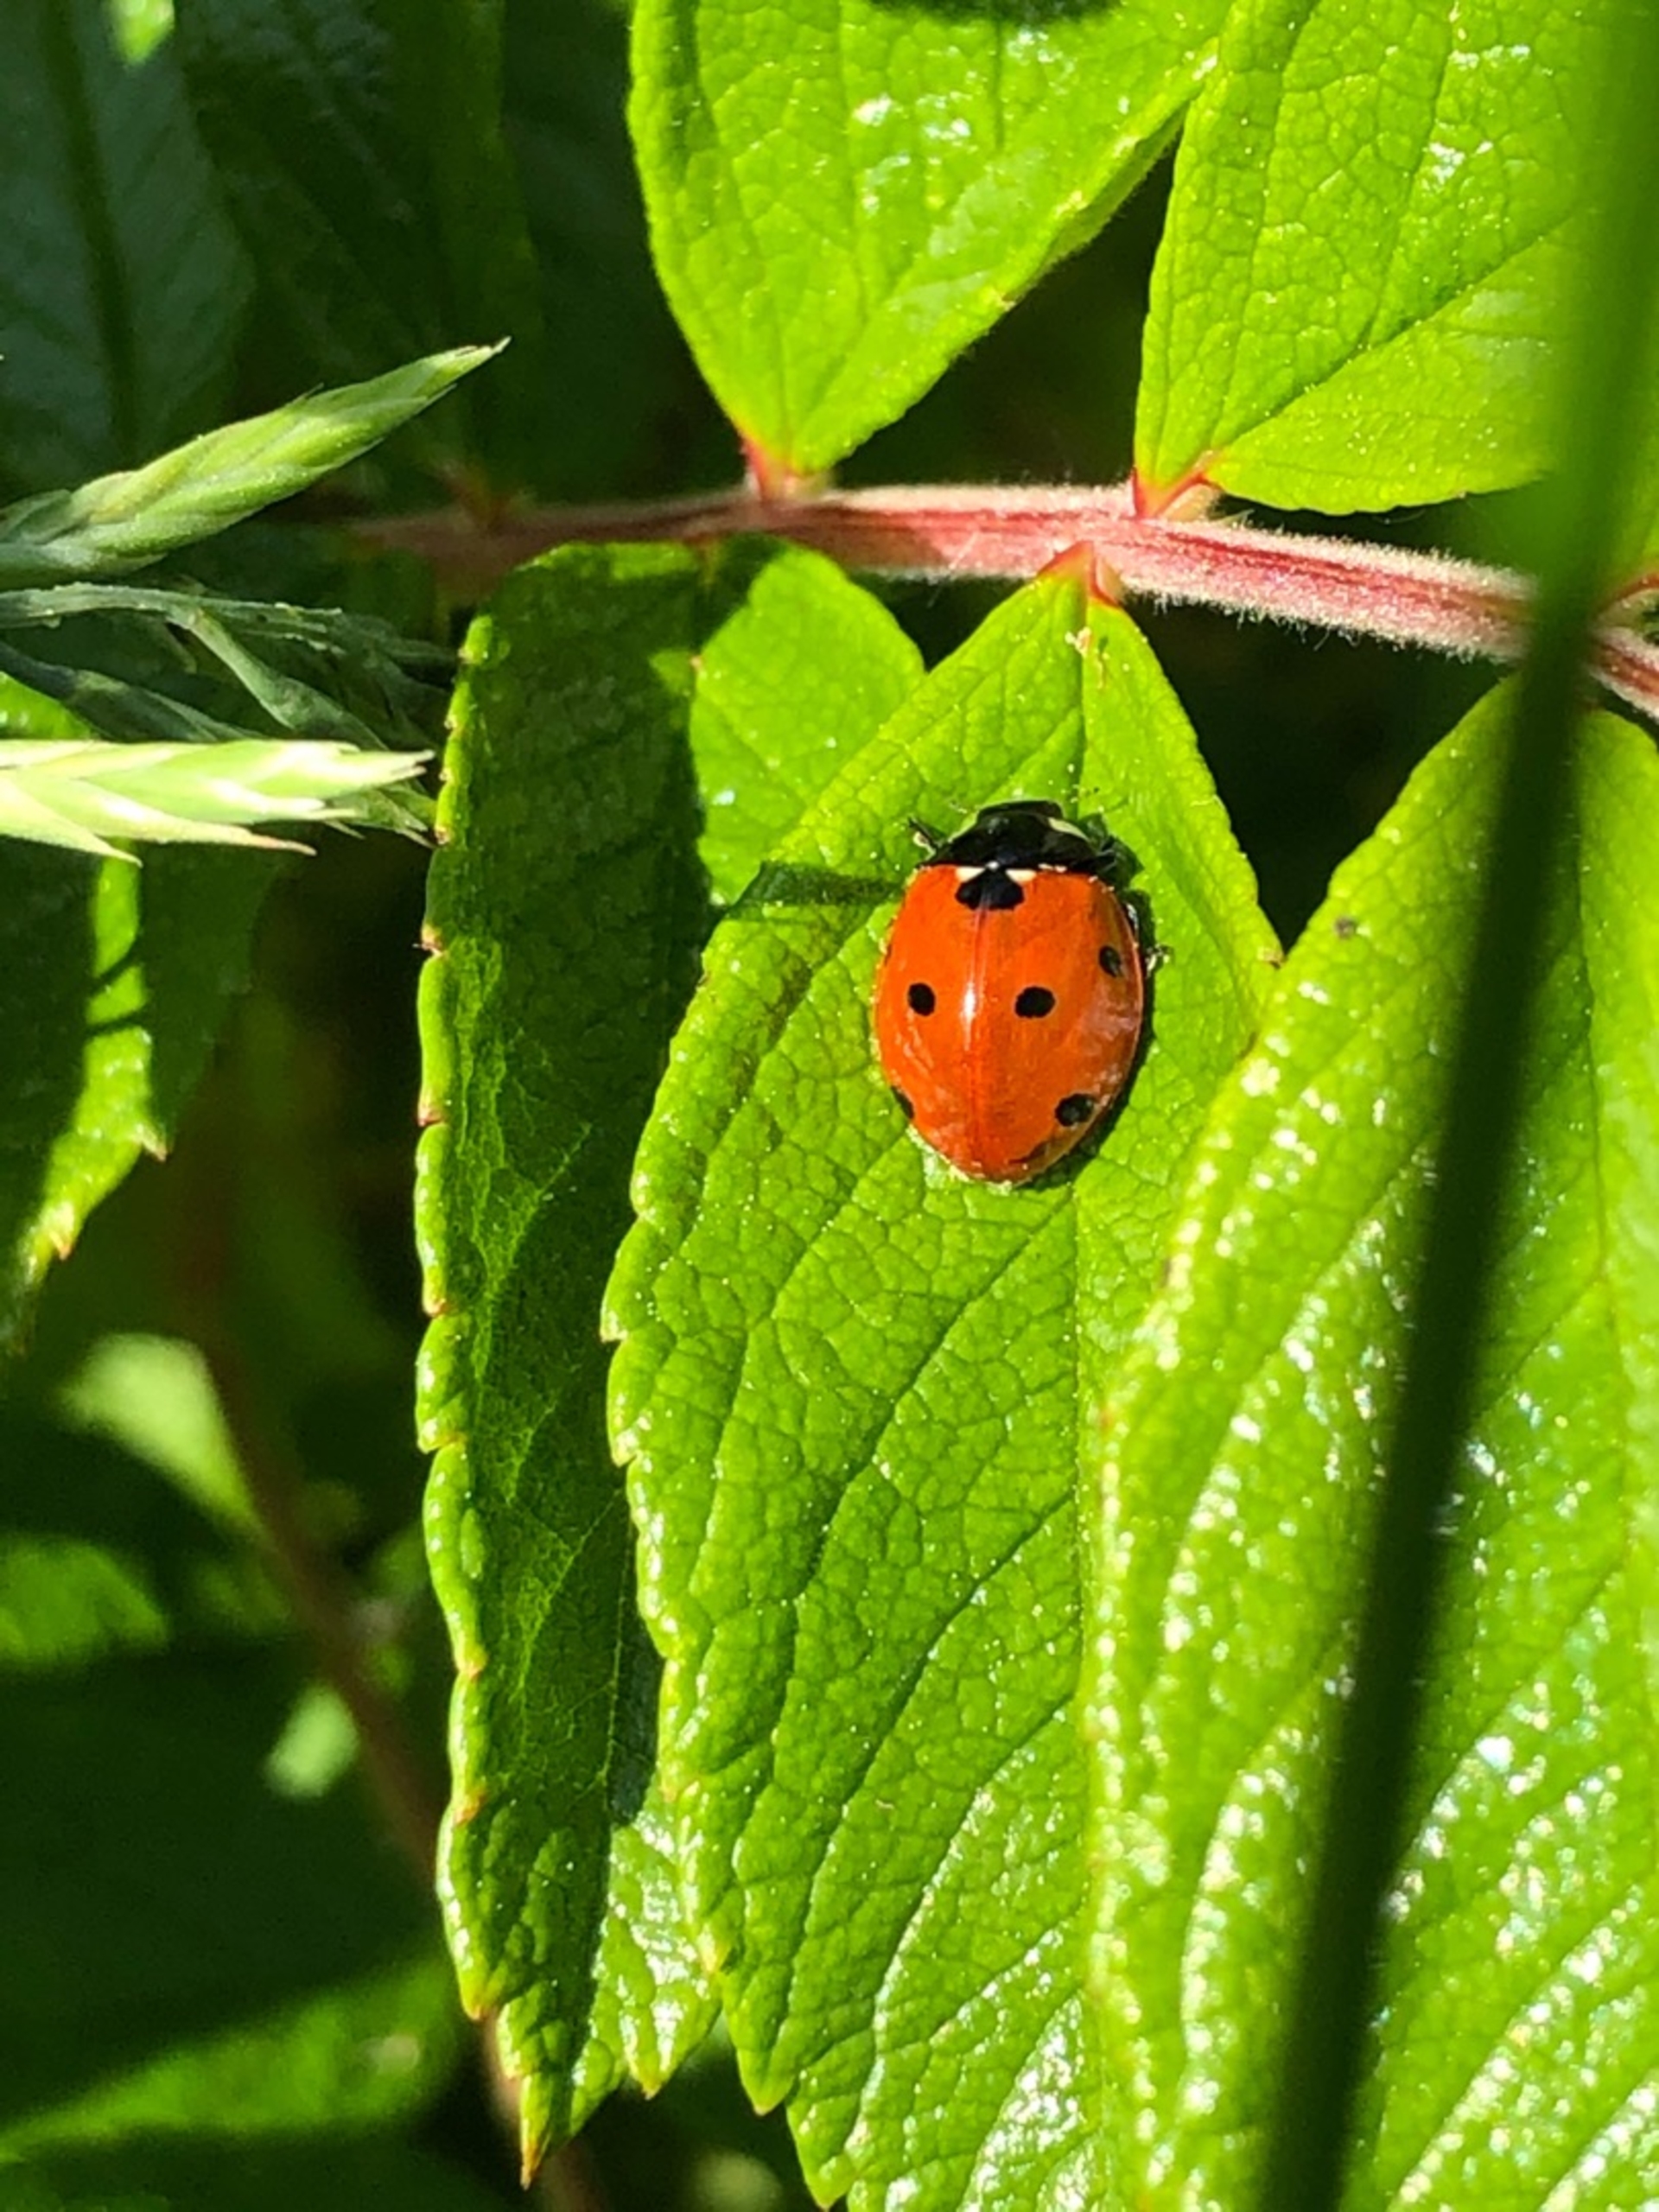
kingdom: Animalia
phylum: Arthropoda
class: Insecta
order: Coleoptera
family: Coccinellidae
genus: Coccinella
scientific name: Coccinella septempunctata
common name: Syvplettet mariehøne
